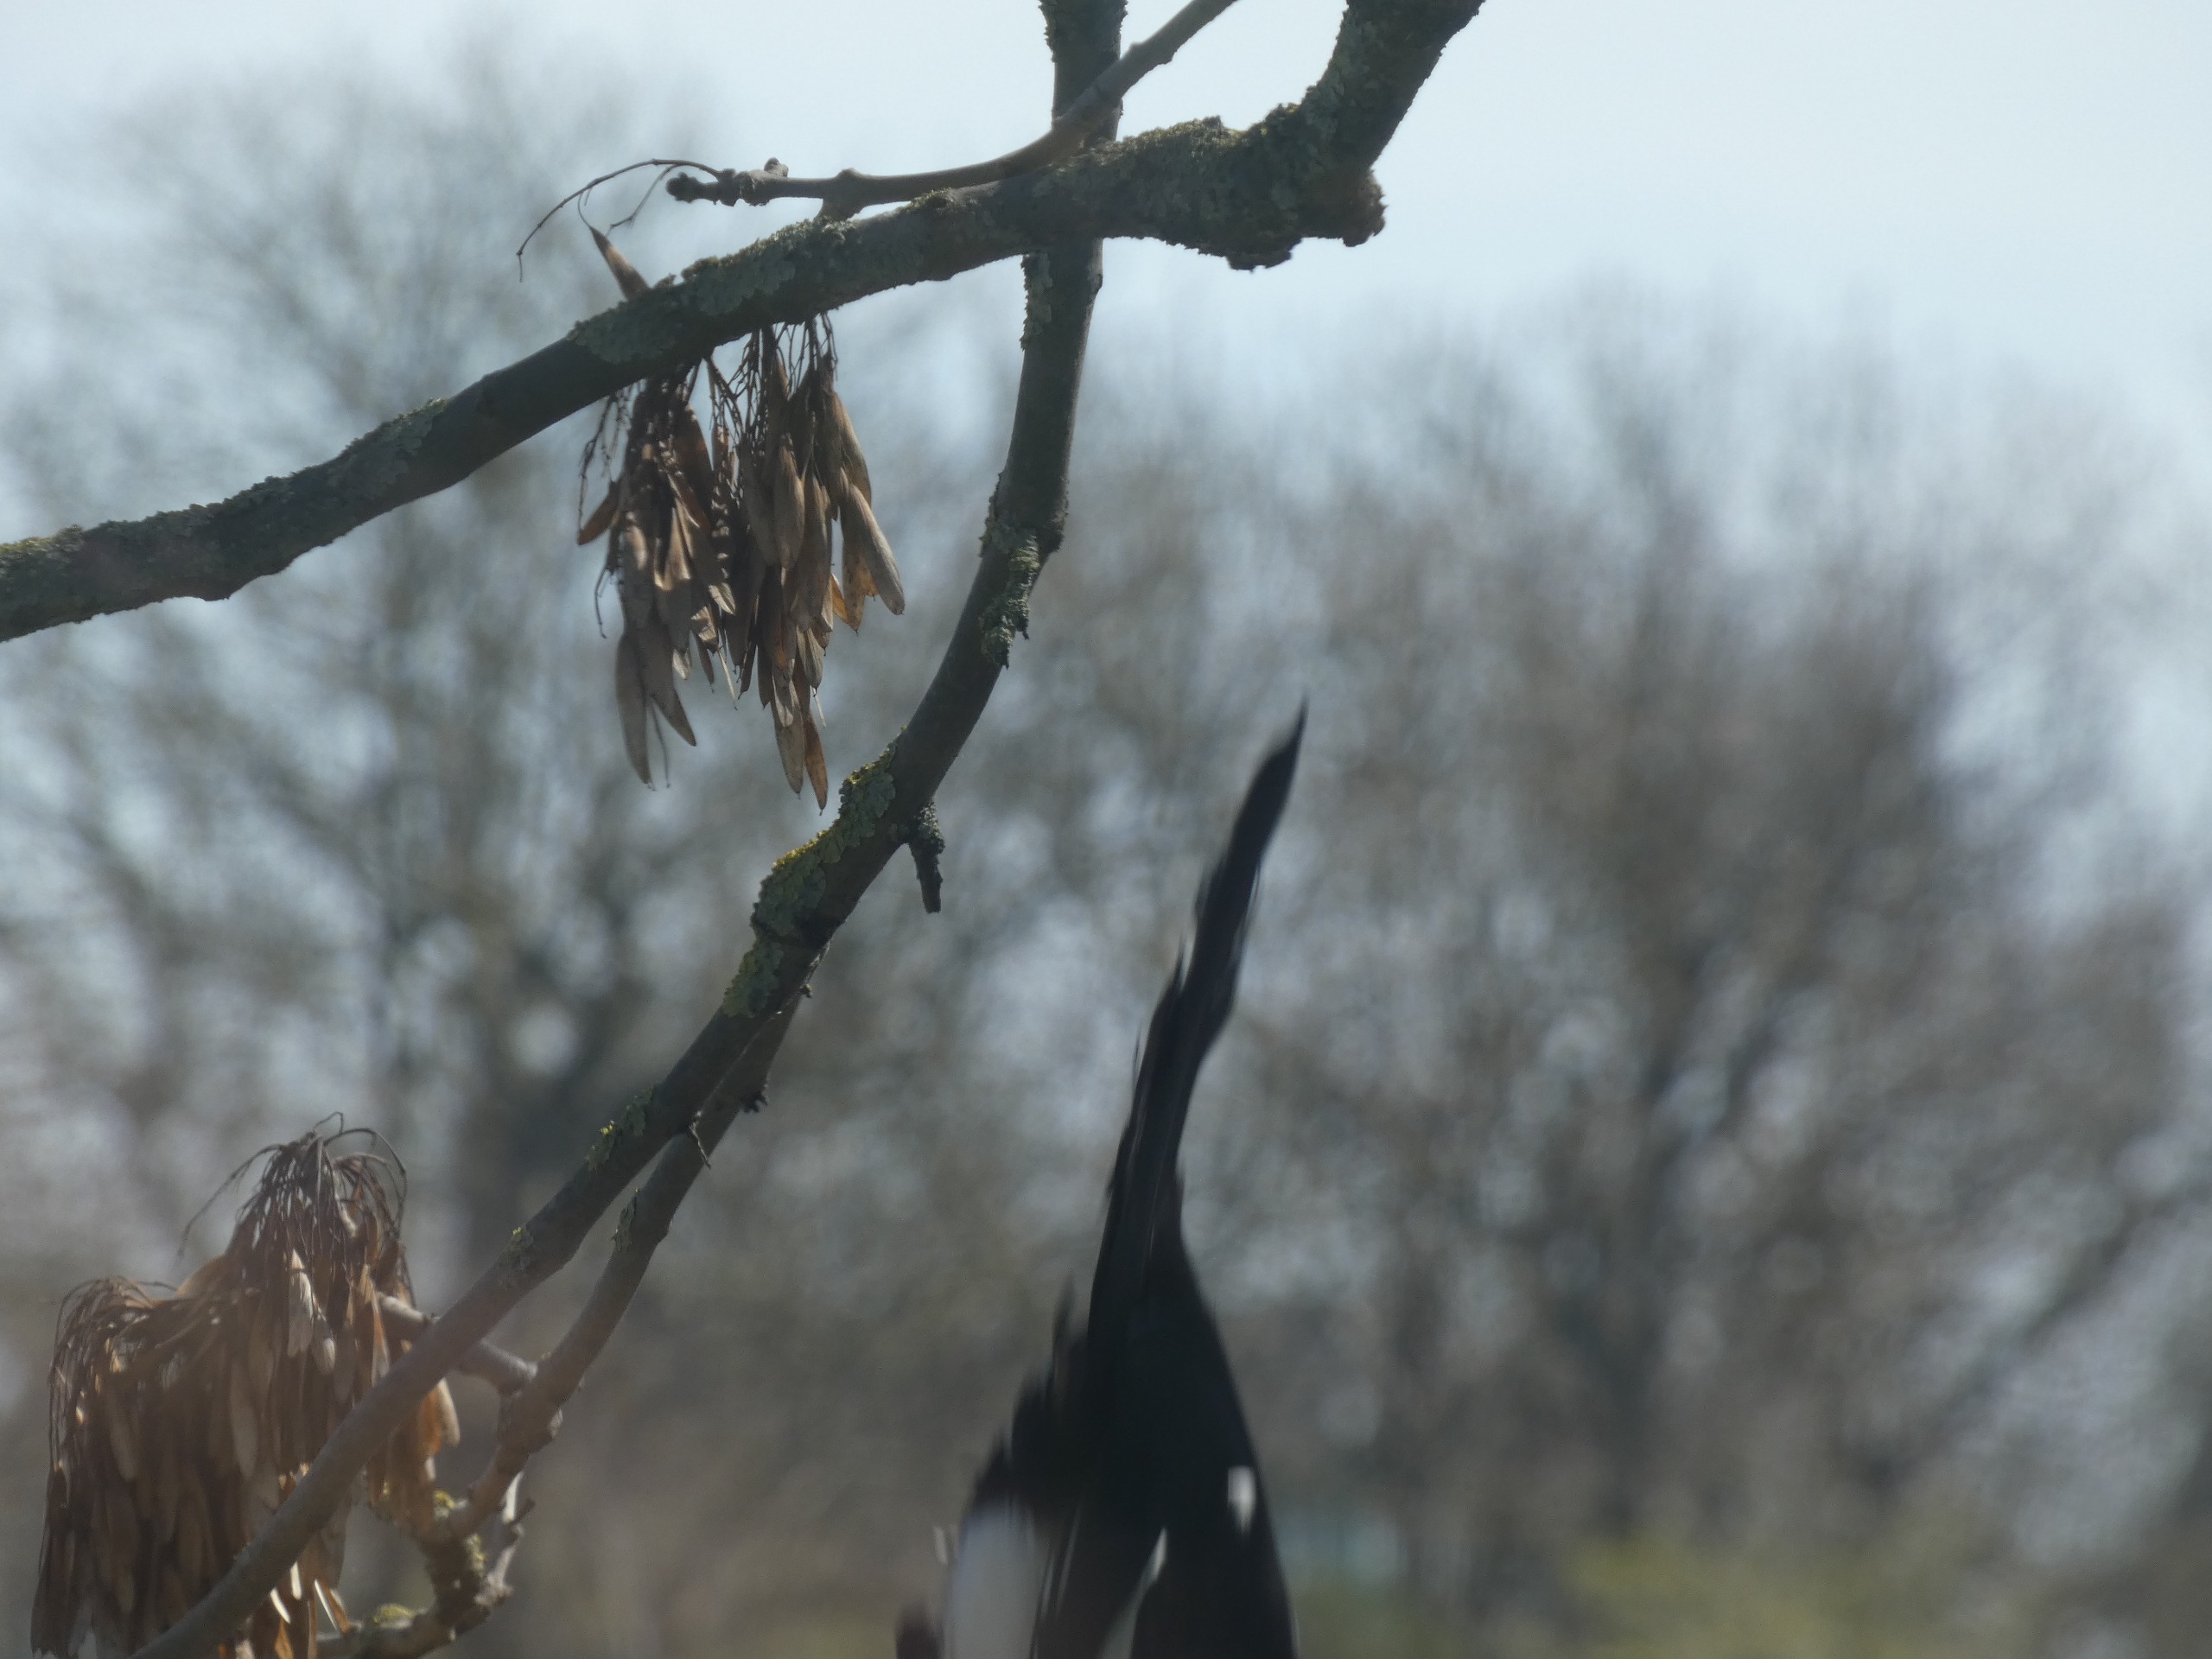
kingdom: Animalia
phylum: Chordata
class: Aves
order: Passeriformes
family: Corvidae
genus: Pica
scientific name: Pica pica
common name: Husskade
